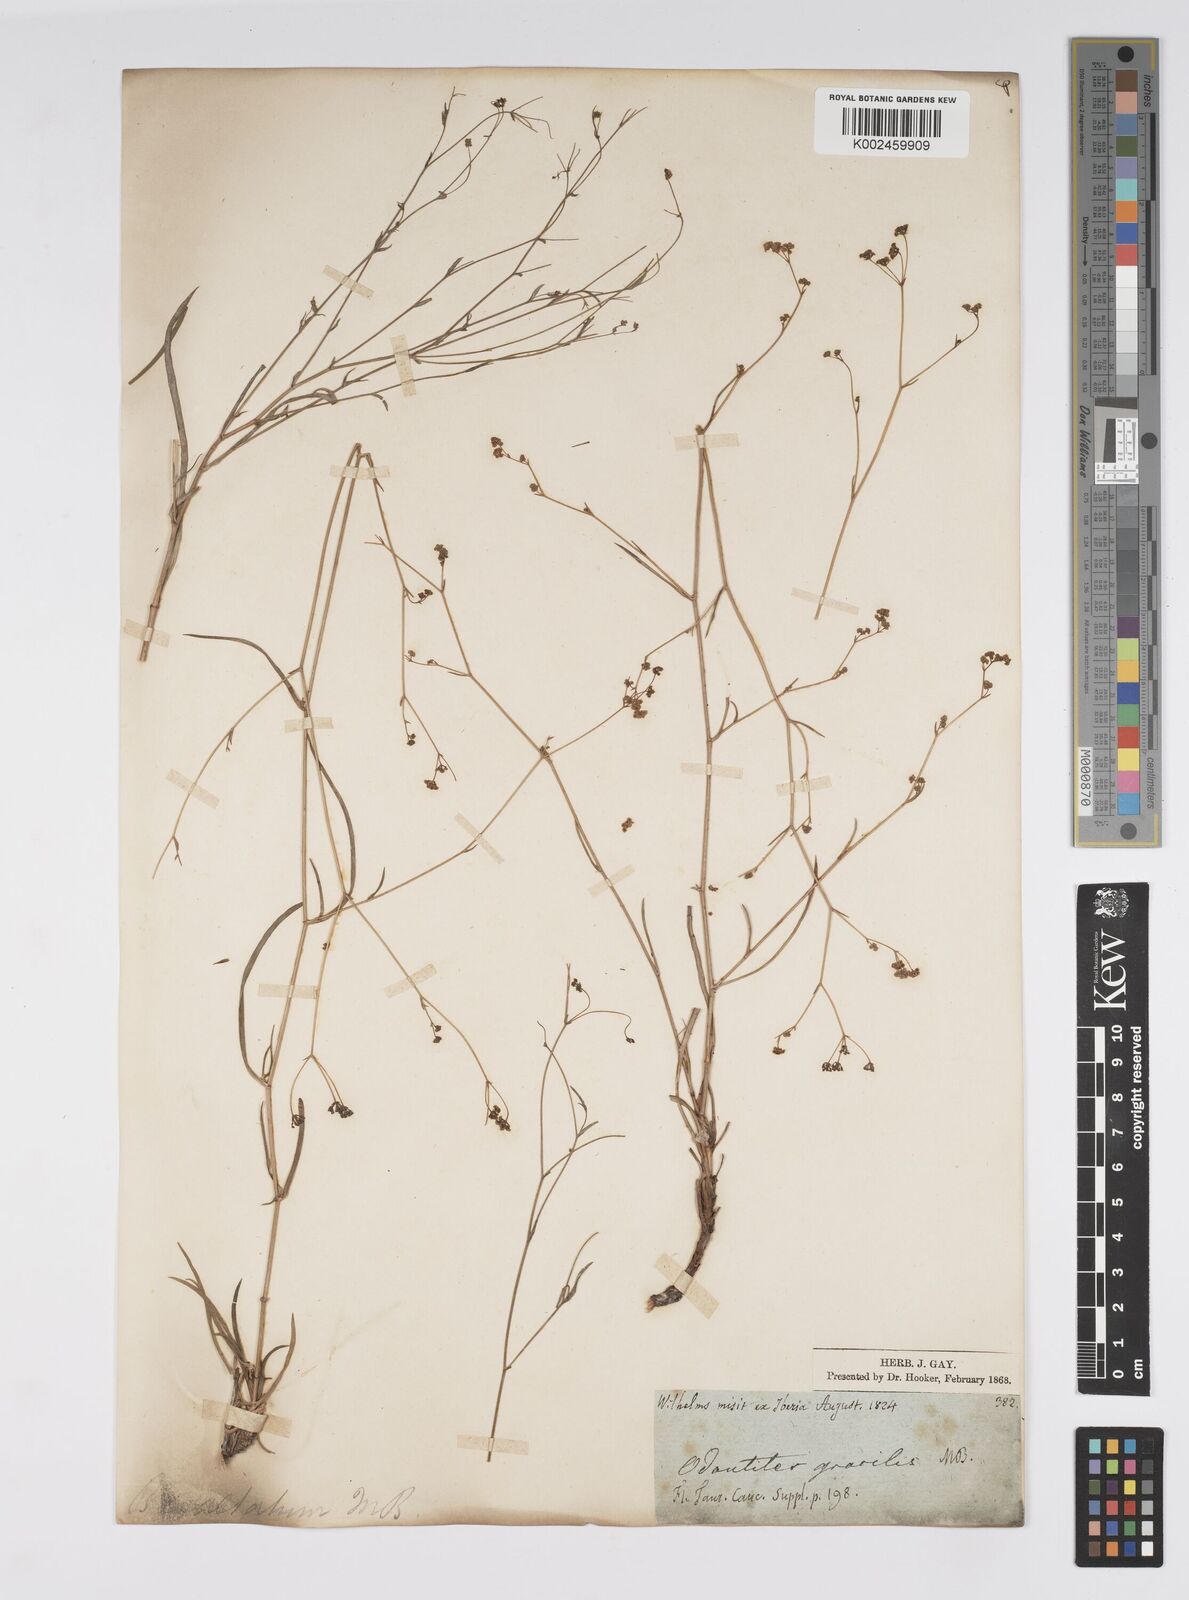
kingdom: Plantae
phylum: Tracheophyta
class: Magnoliopsida
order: Apiales
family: Apiaceae
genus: Bupleurum
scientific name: Bupleurum falcatum
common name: Sickle-leaved hare's-ear
